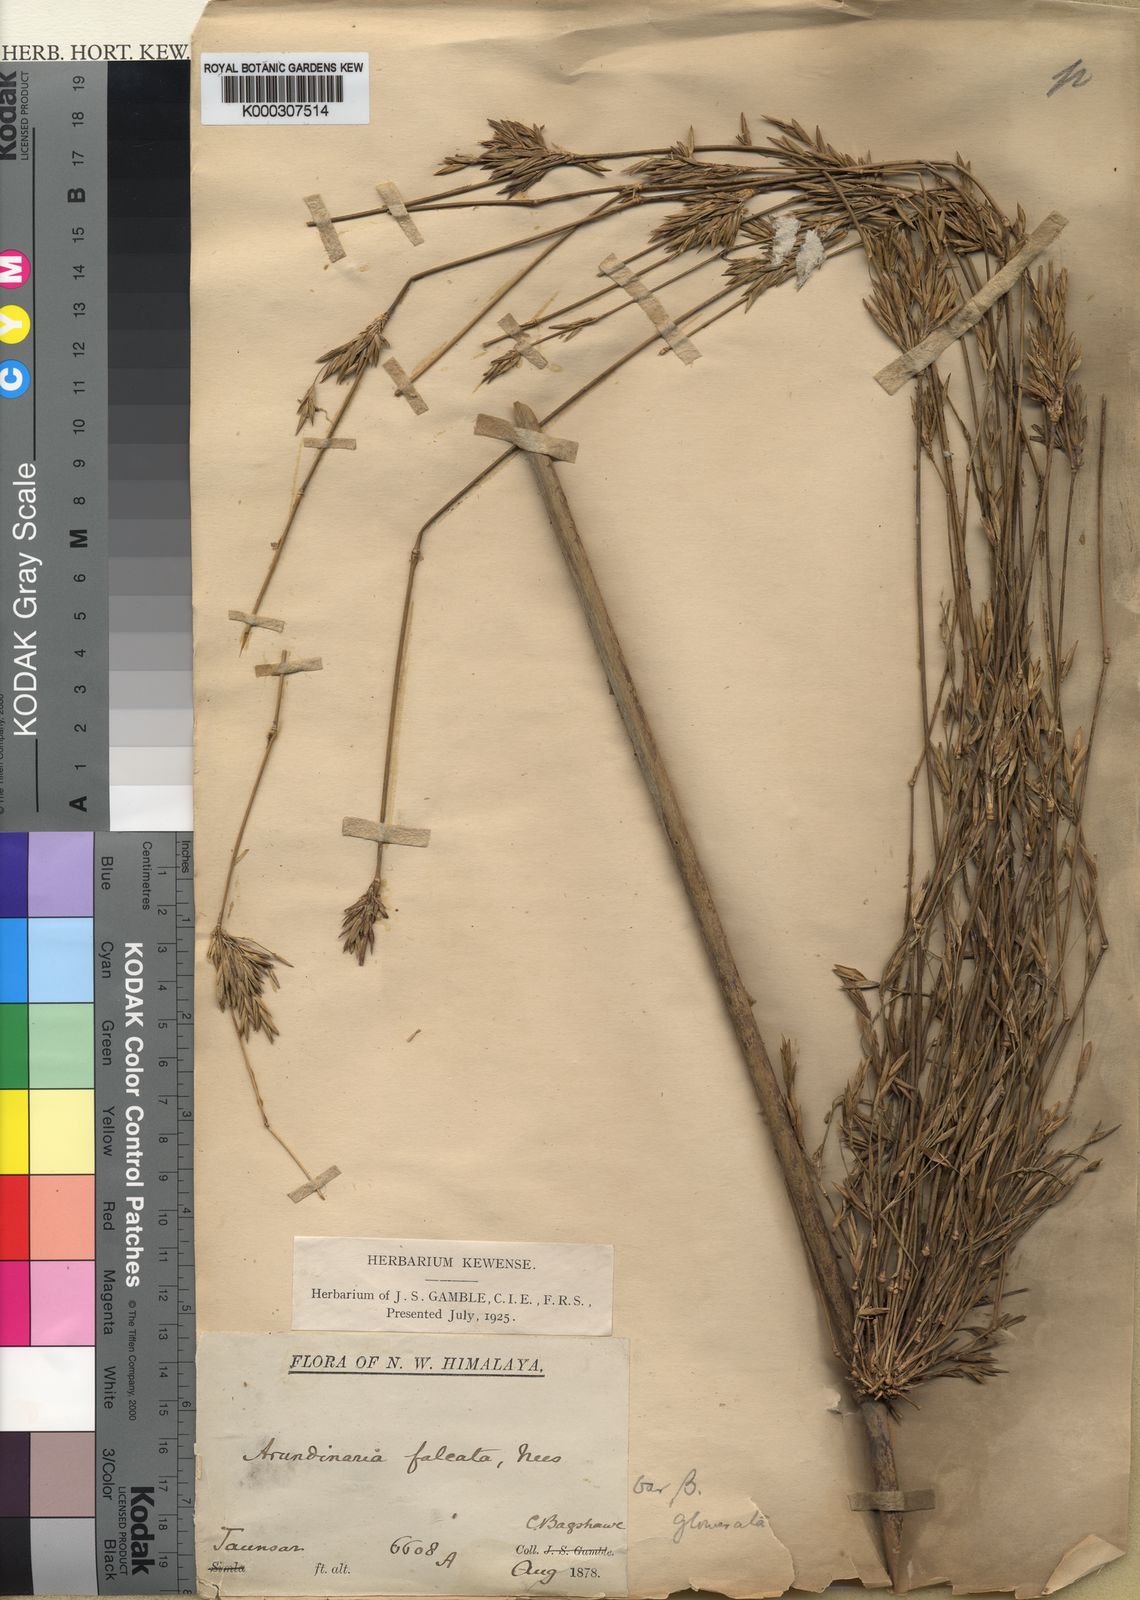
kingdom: Plantae
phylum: Tracheophyta
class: Liliopsida
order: Poales
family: Poaceae
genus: Drepanostachyum
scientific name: Drepanostachyum falcatum
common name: Himalayan bamboo
